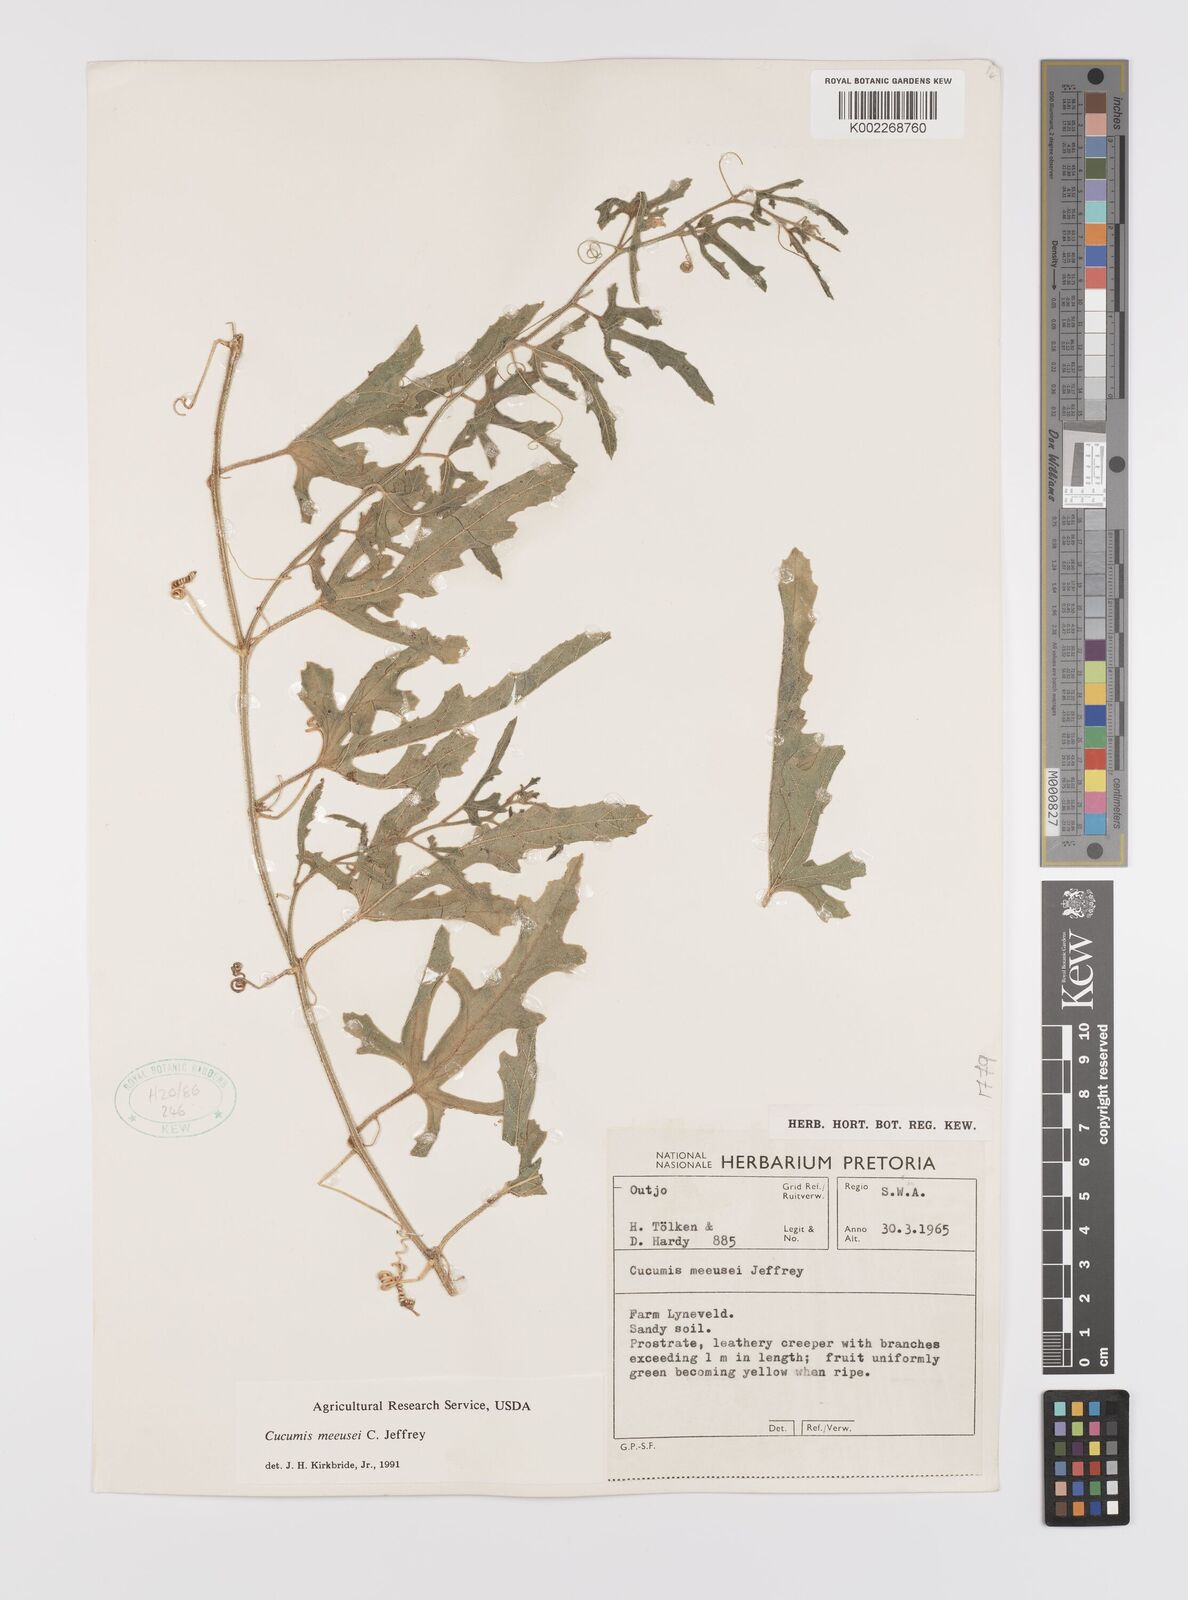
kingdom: Plantae
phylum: Tracheophyta
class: Magnoliopsida
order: Cucurbitales
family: Cucurbitaceae
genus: Cucumis
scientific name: Cucumis meeusei
